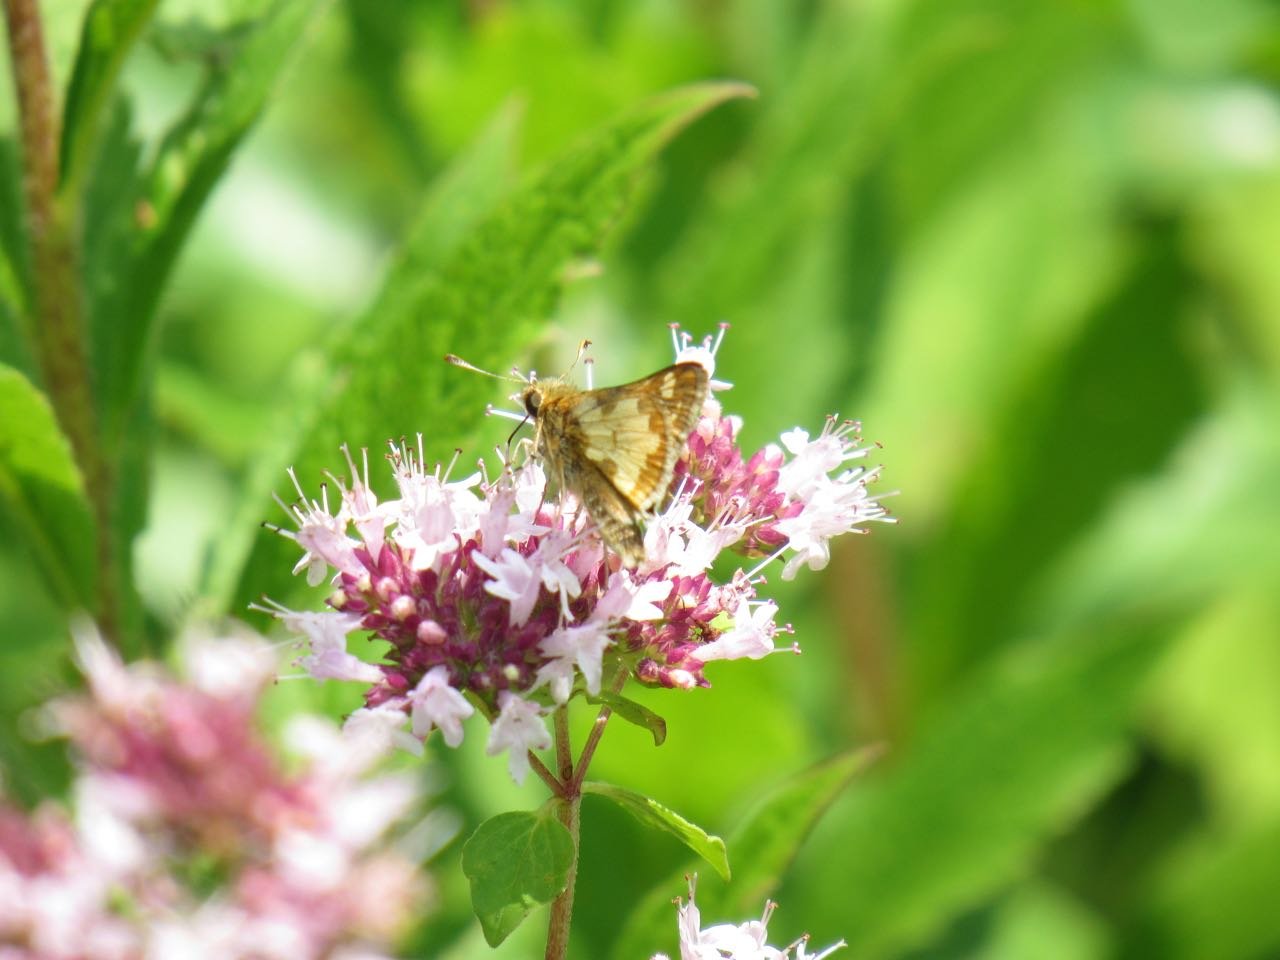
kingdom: Animalia
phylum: Arthropoda
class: Insecta
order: Lepidoptera
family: Hesperiidae
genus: Polites
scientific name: Polites coras
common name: Peck's Skipper
